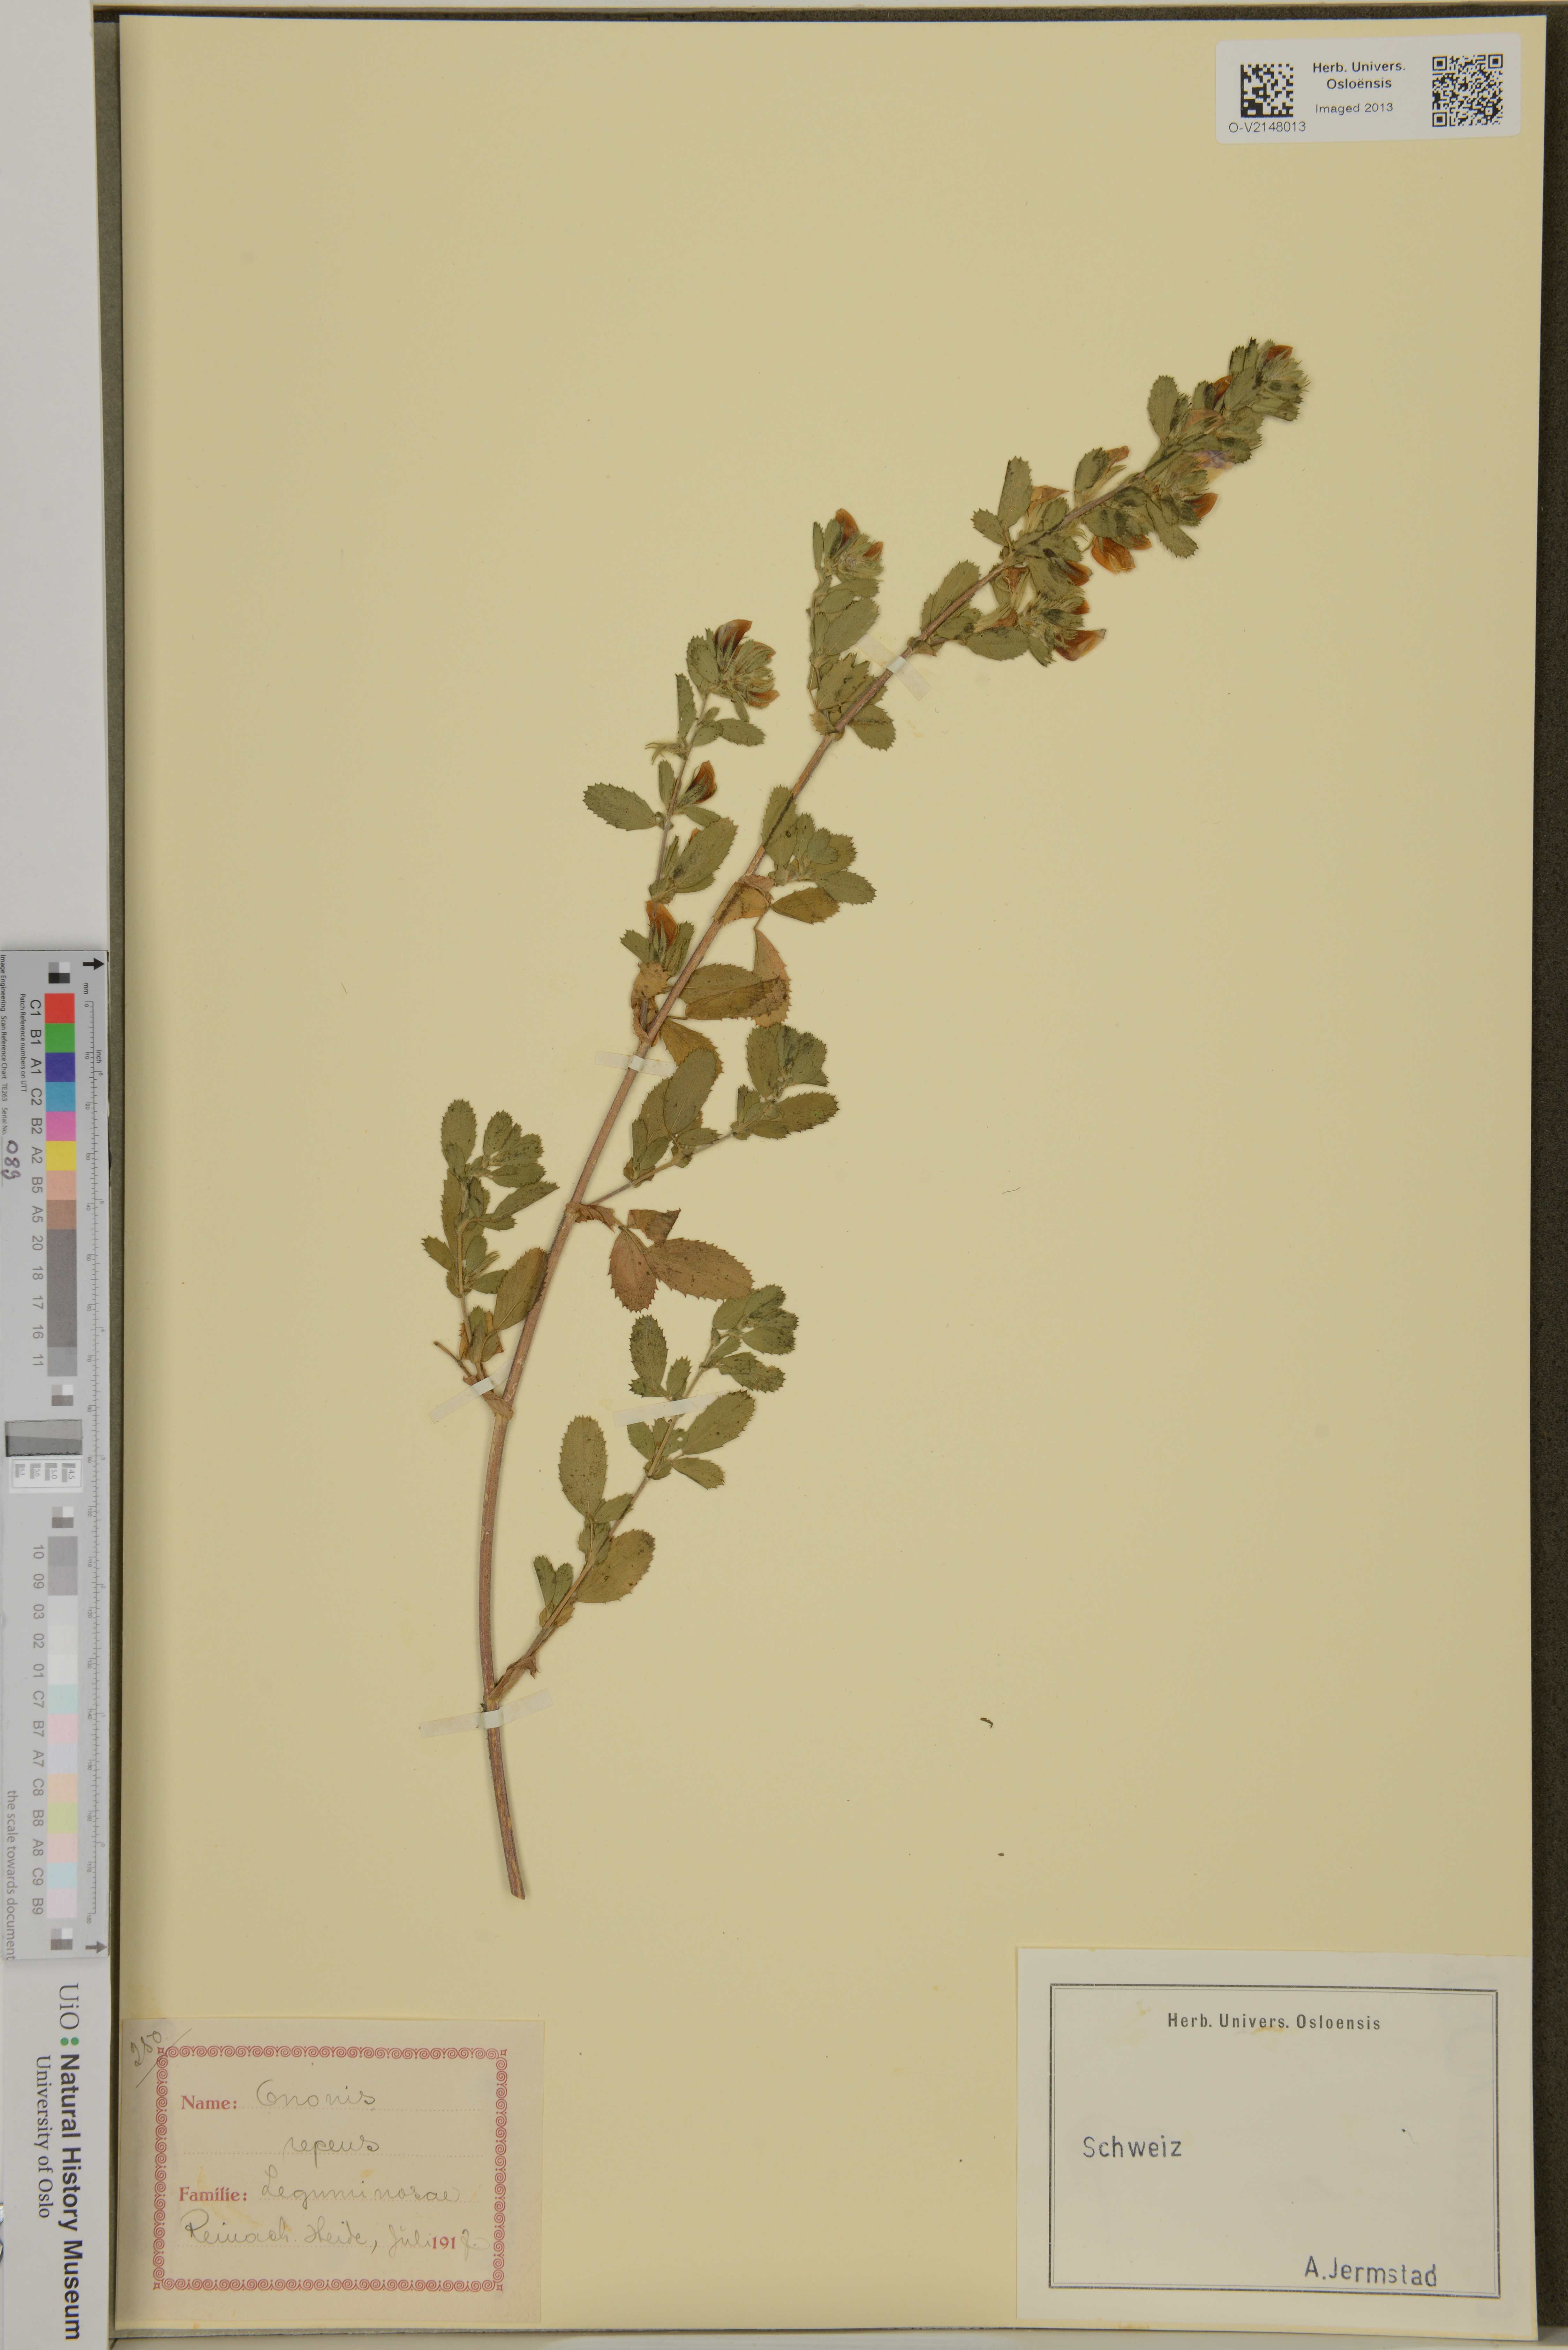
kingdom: Plantae
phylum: Tracheophyta
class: Magnoliopsida
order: Fabales
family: Fabaceae
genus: Ononis
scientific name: Ononis spinosa
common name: Spiny restharrow
